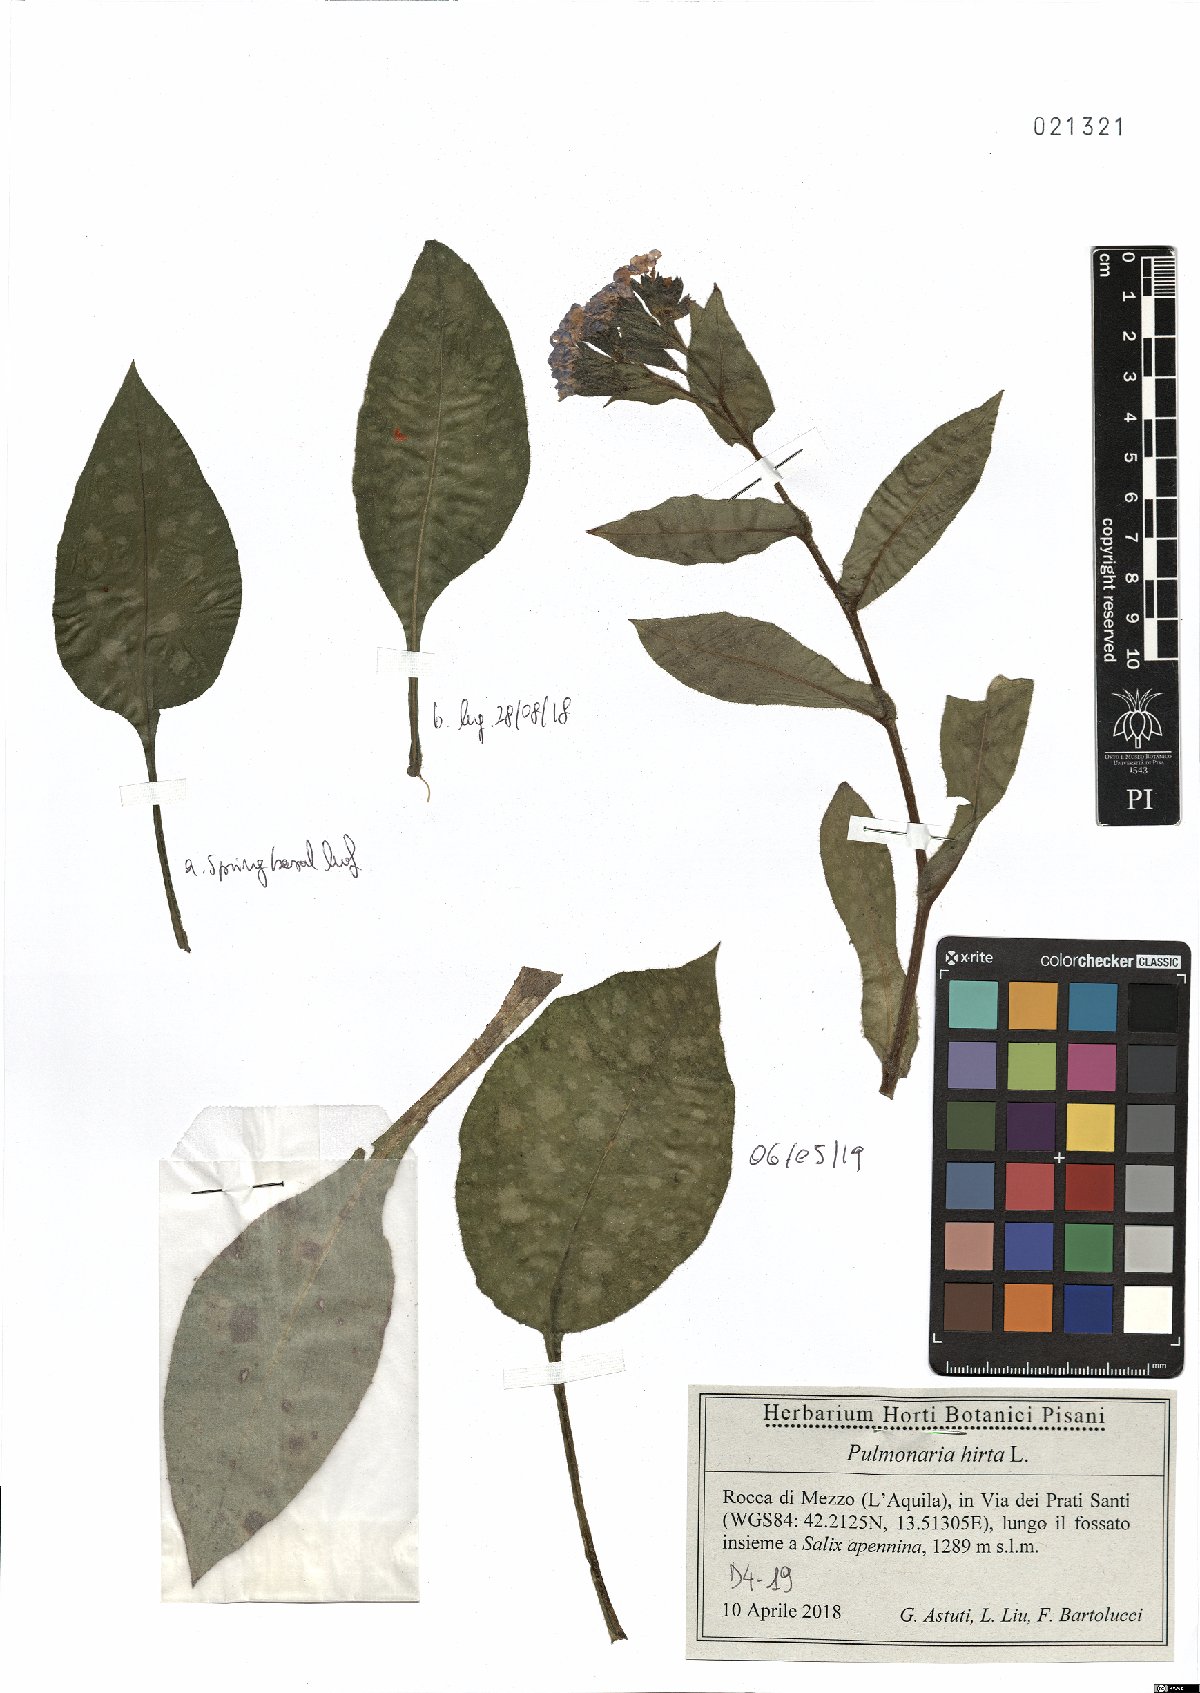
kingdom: Plantae
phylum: Tracheophyta
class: Magnoliopsida
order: Boraginales
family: Boraginaceae
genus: Pulmonaria
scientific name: Pulmonaria hirta
